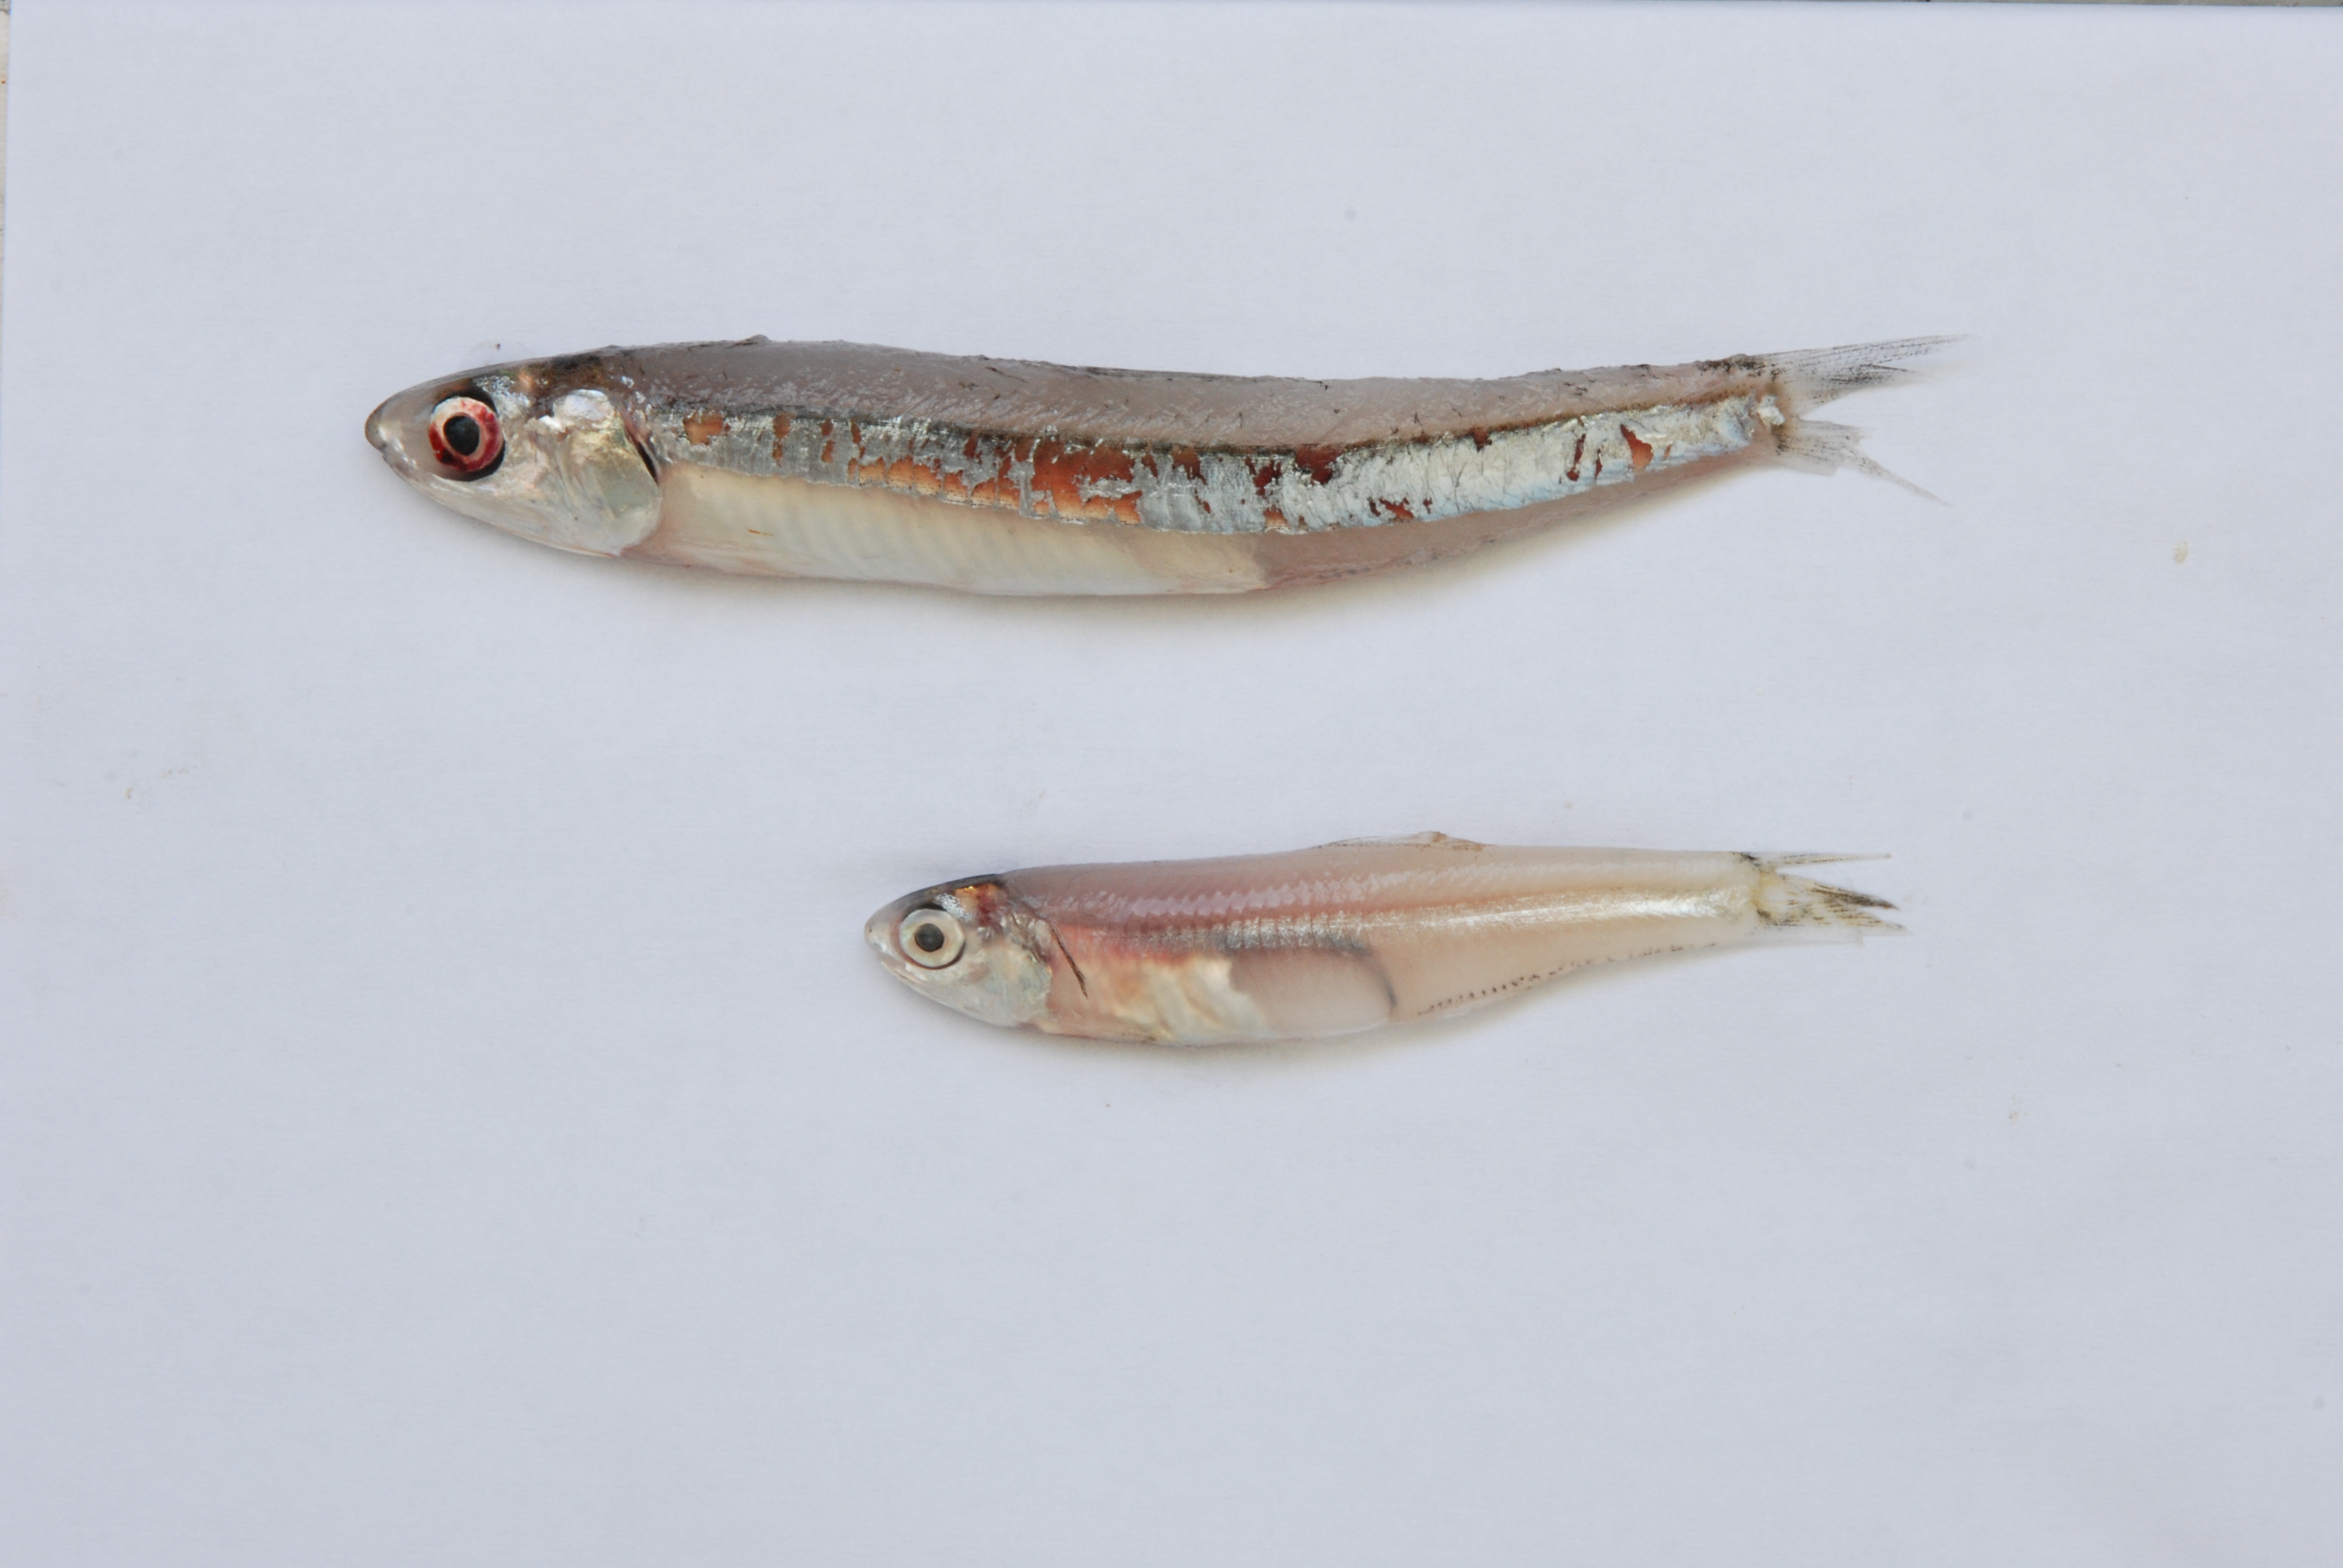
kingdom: Animalia
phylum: Chordata
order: Clupeiformes
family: Engraulidae
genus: Encrasicholina
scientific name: Encrasicholina heteroloba
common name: Shorthead anchovy
